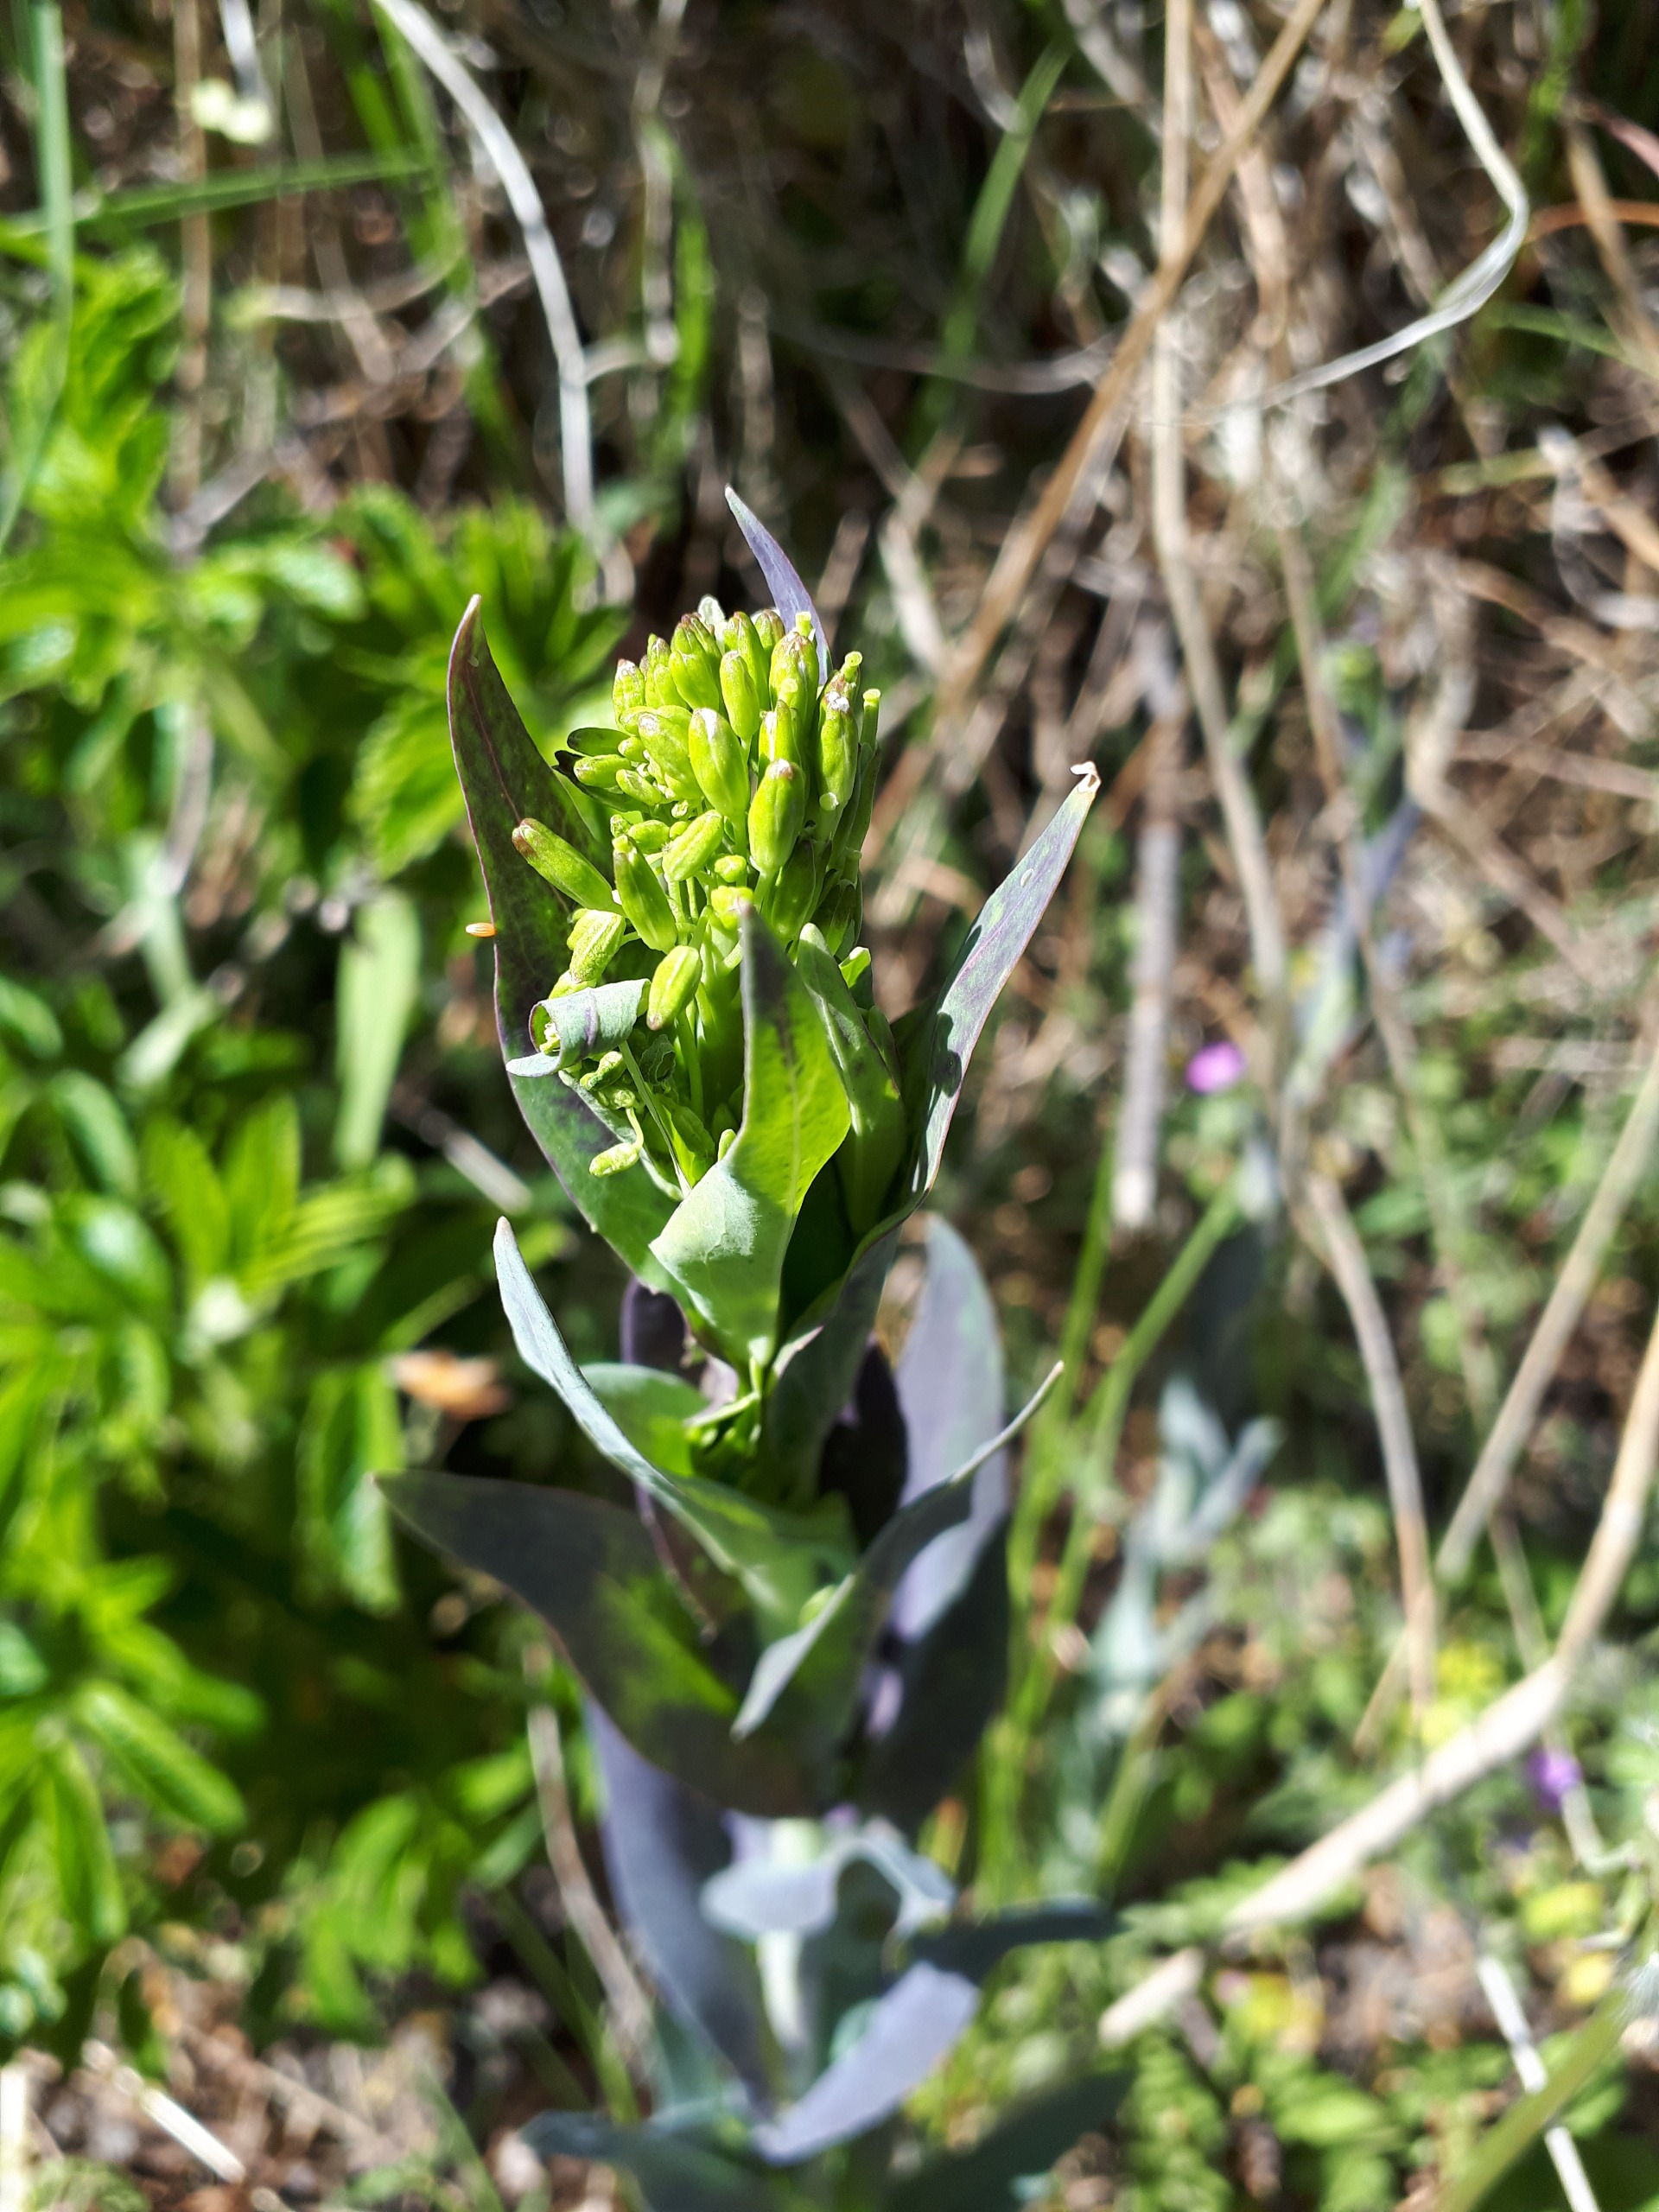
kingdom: Plantae
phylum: Tracheophyta
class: Magnoliopsida
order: Brassicales
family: Brassicaceae
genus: Turritis
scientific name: Turritis glabra
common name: Tårnurt
